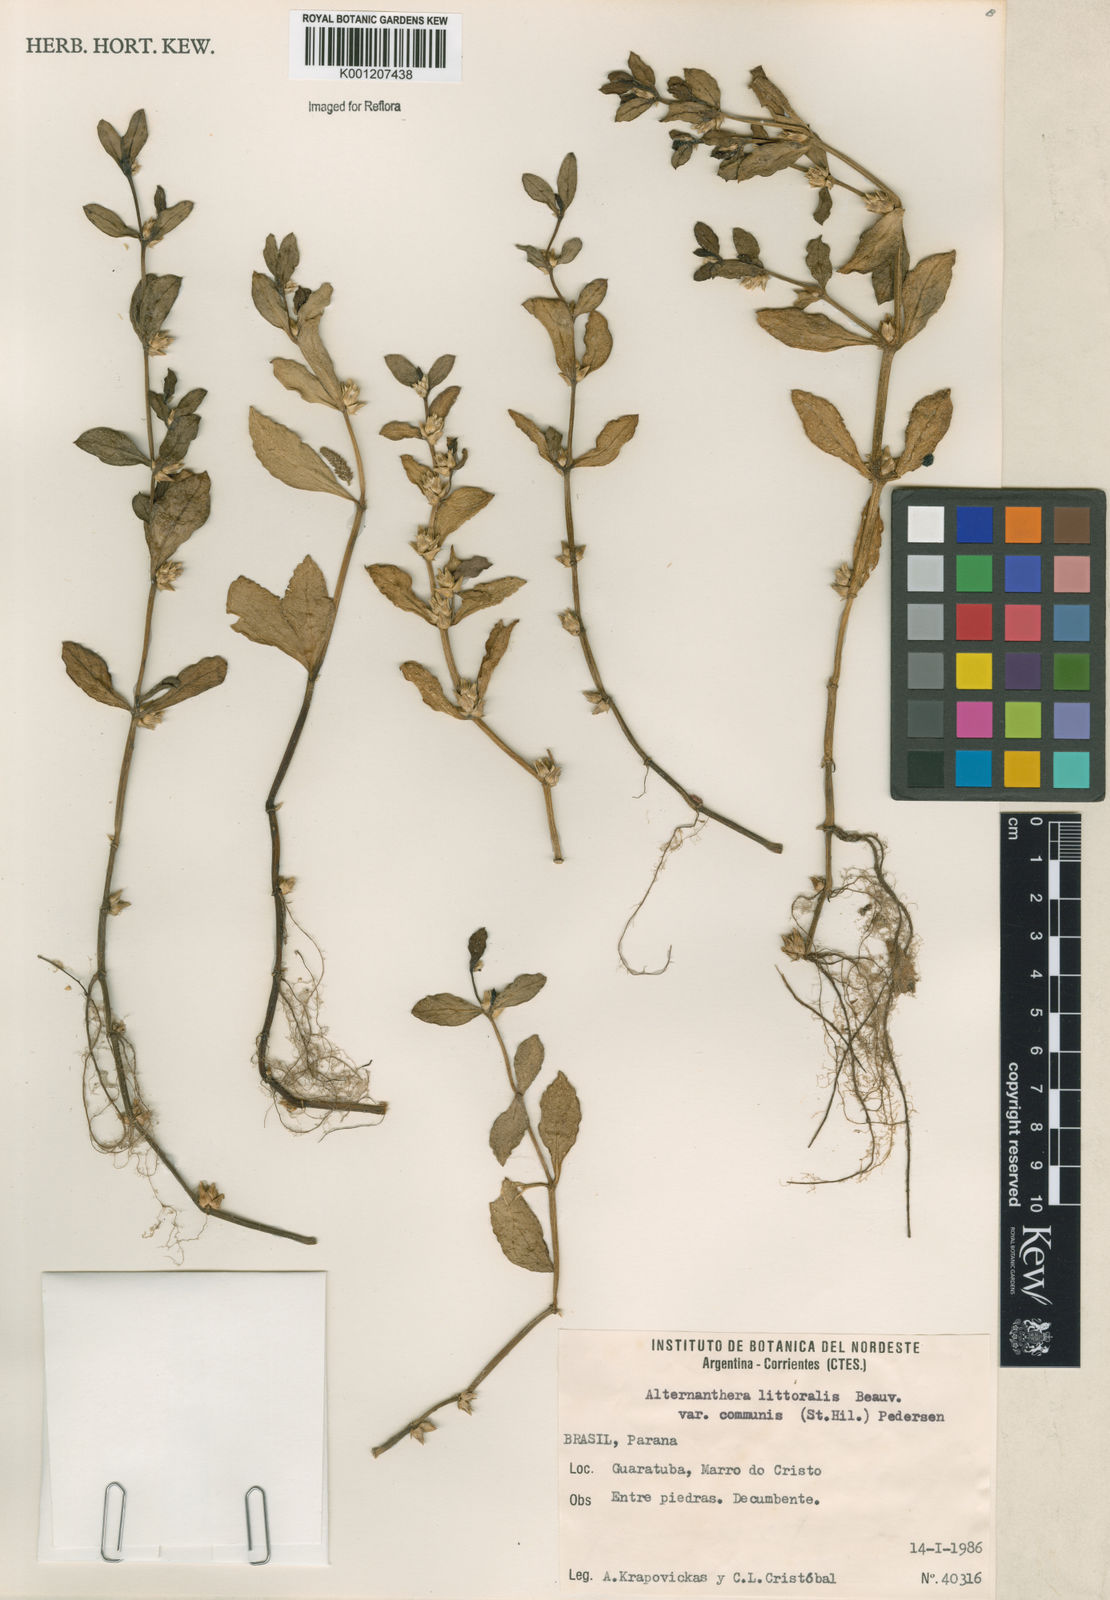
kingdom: Plantae
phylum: Tracheophyta
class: Magnoliopsida
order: Caryophyllales
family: Amaranthaceae
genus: Alternanthera
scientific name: Alternanthera littoralis
